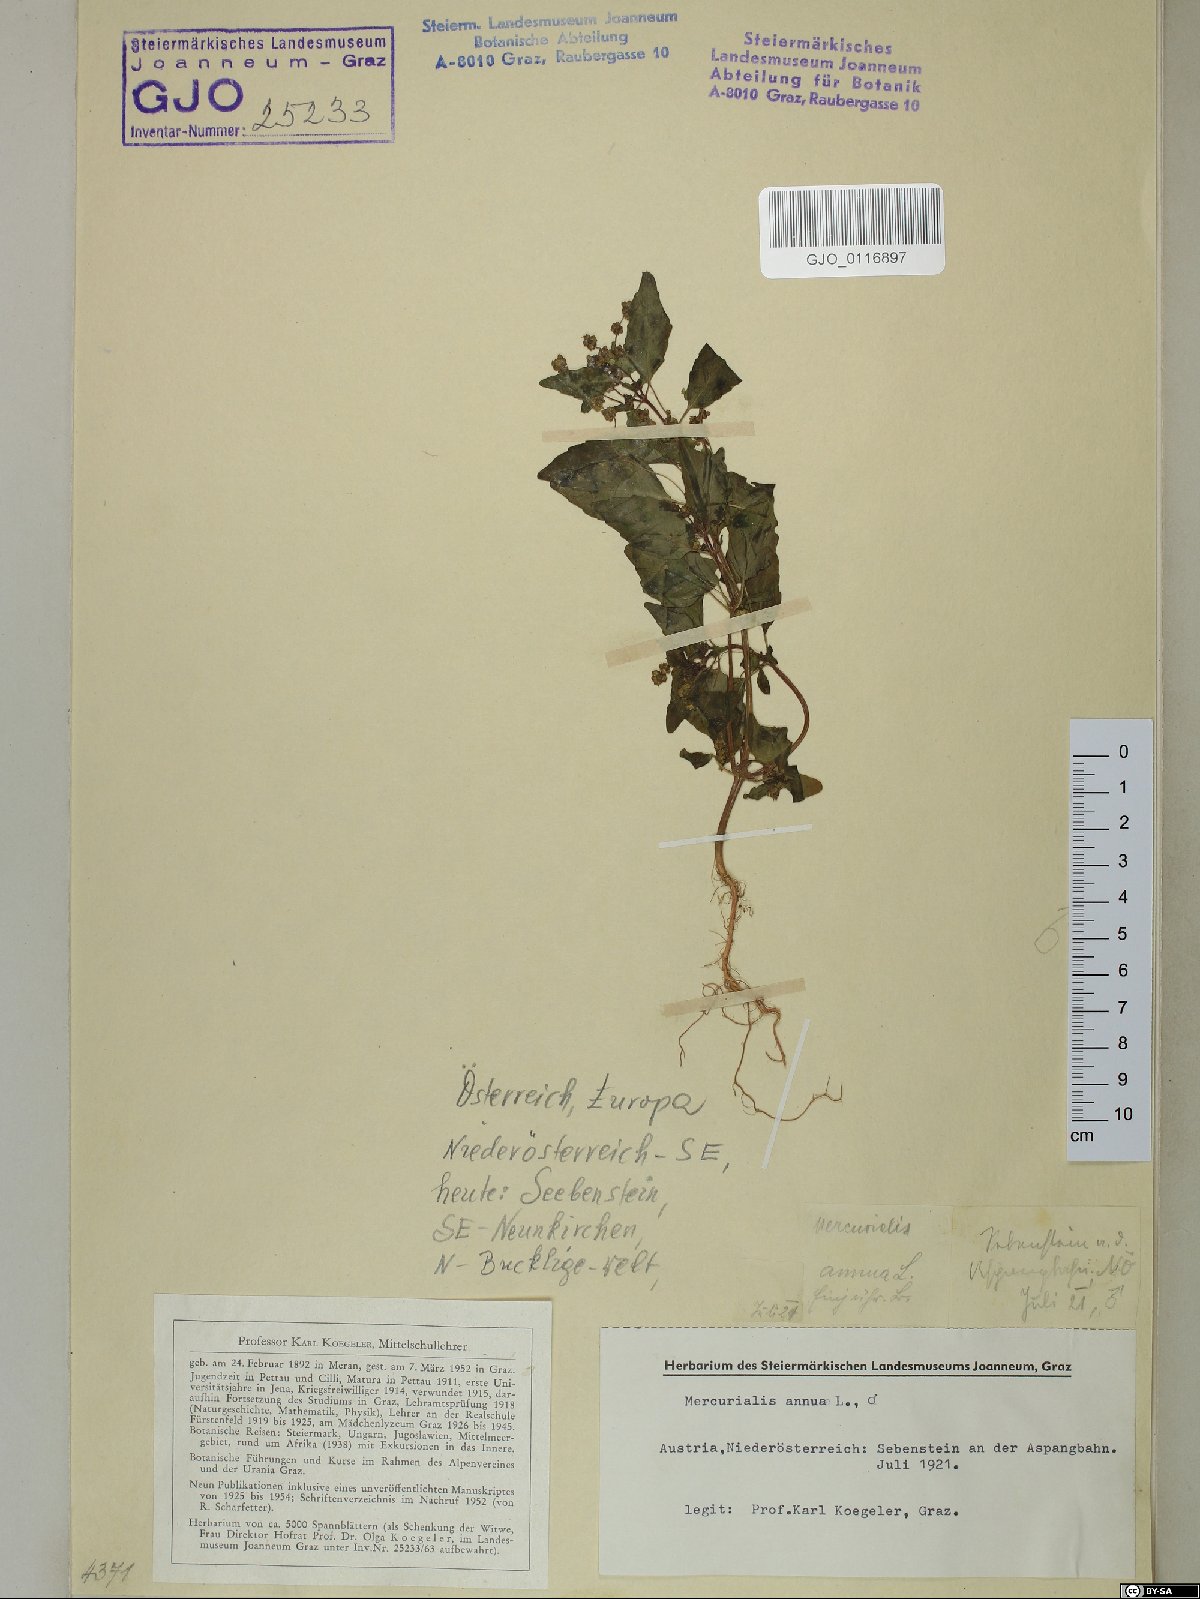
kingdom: Plantae
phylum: Tracheophyta
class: Magnoliopsida
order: Malpighiales
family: Euphorbiaceae
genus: Mercurialis
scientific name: Mercurialis annua
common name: Annual mercury
